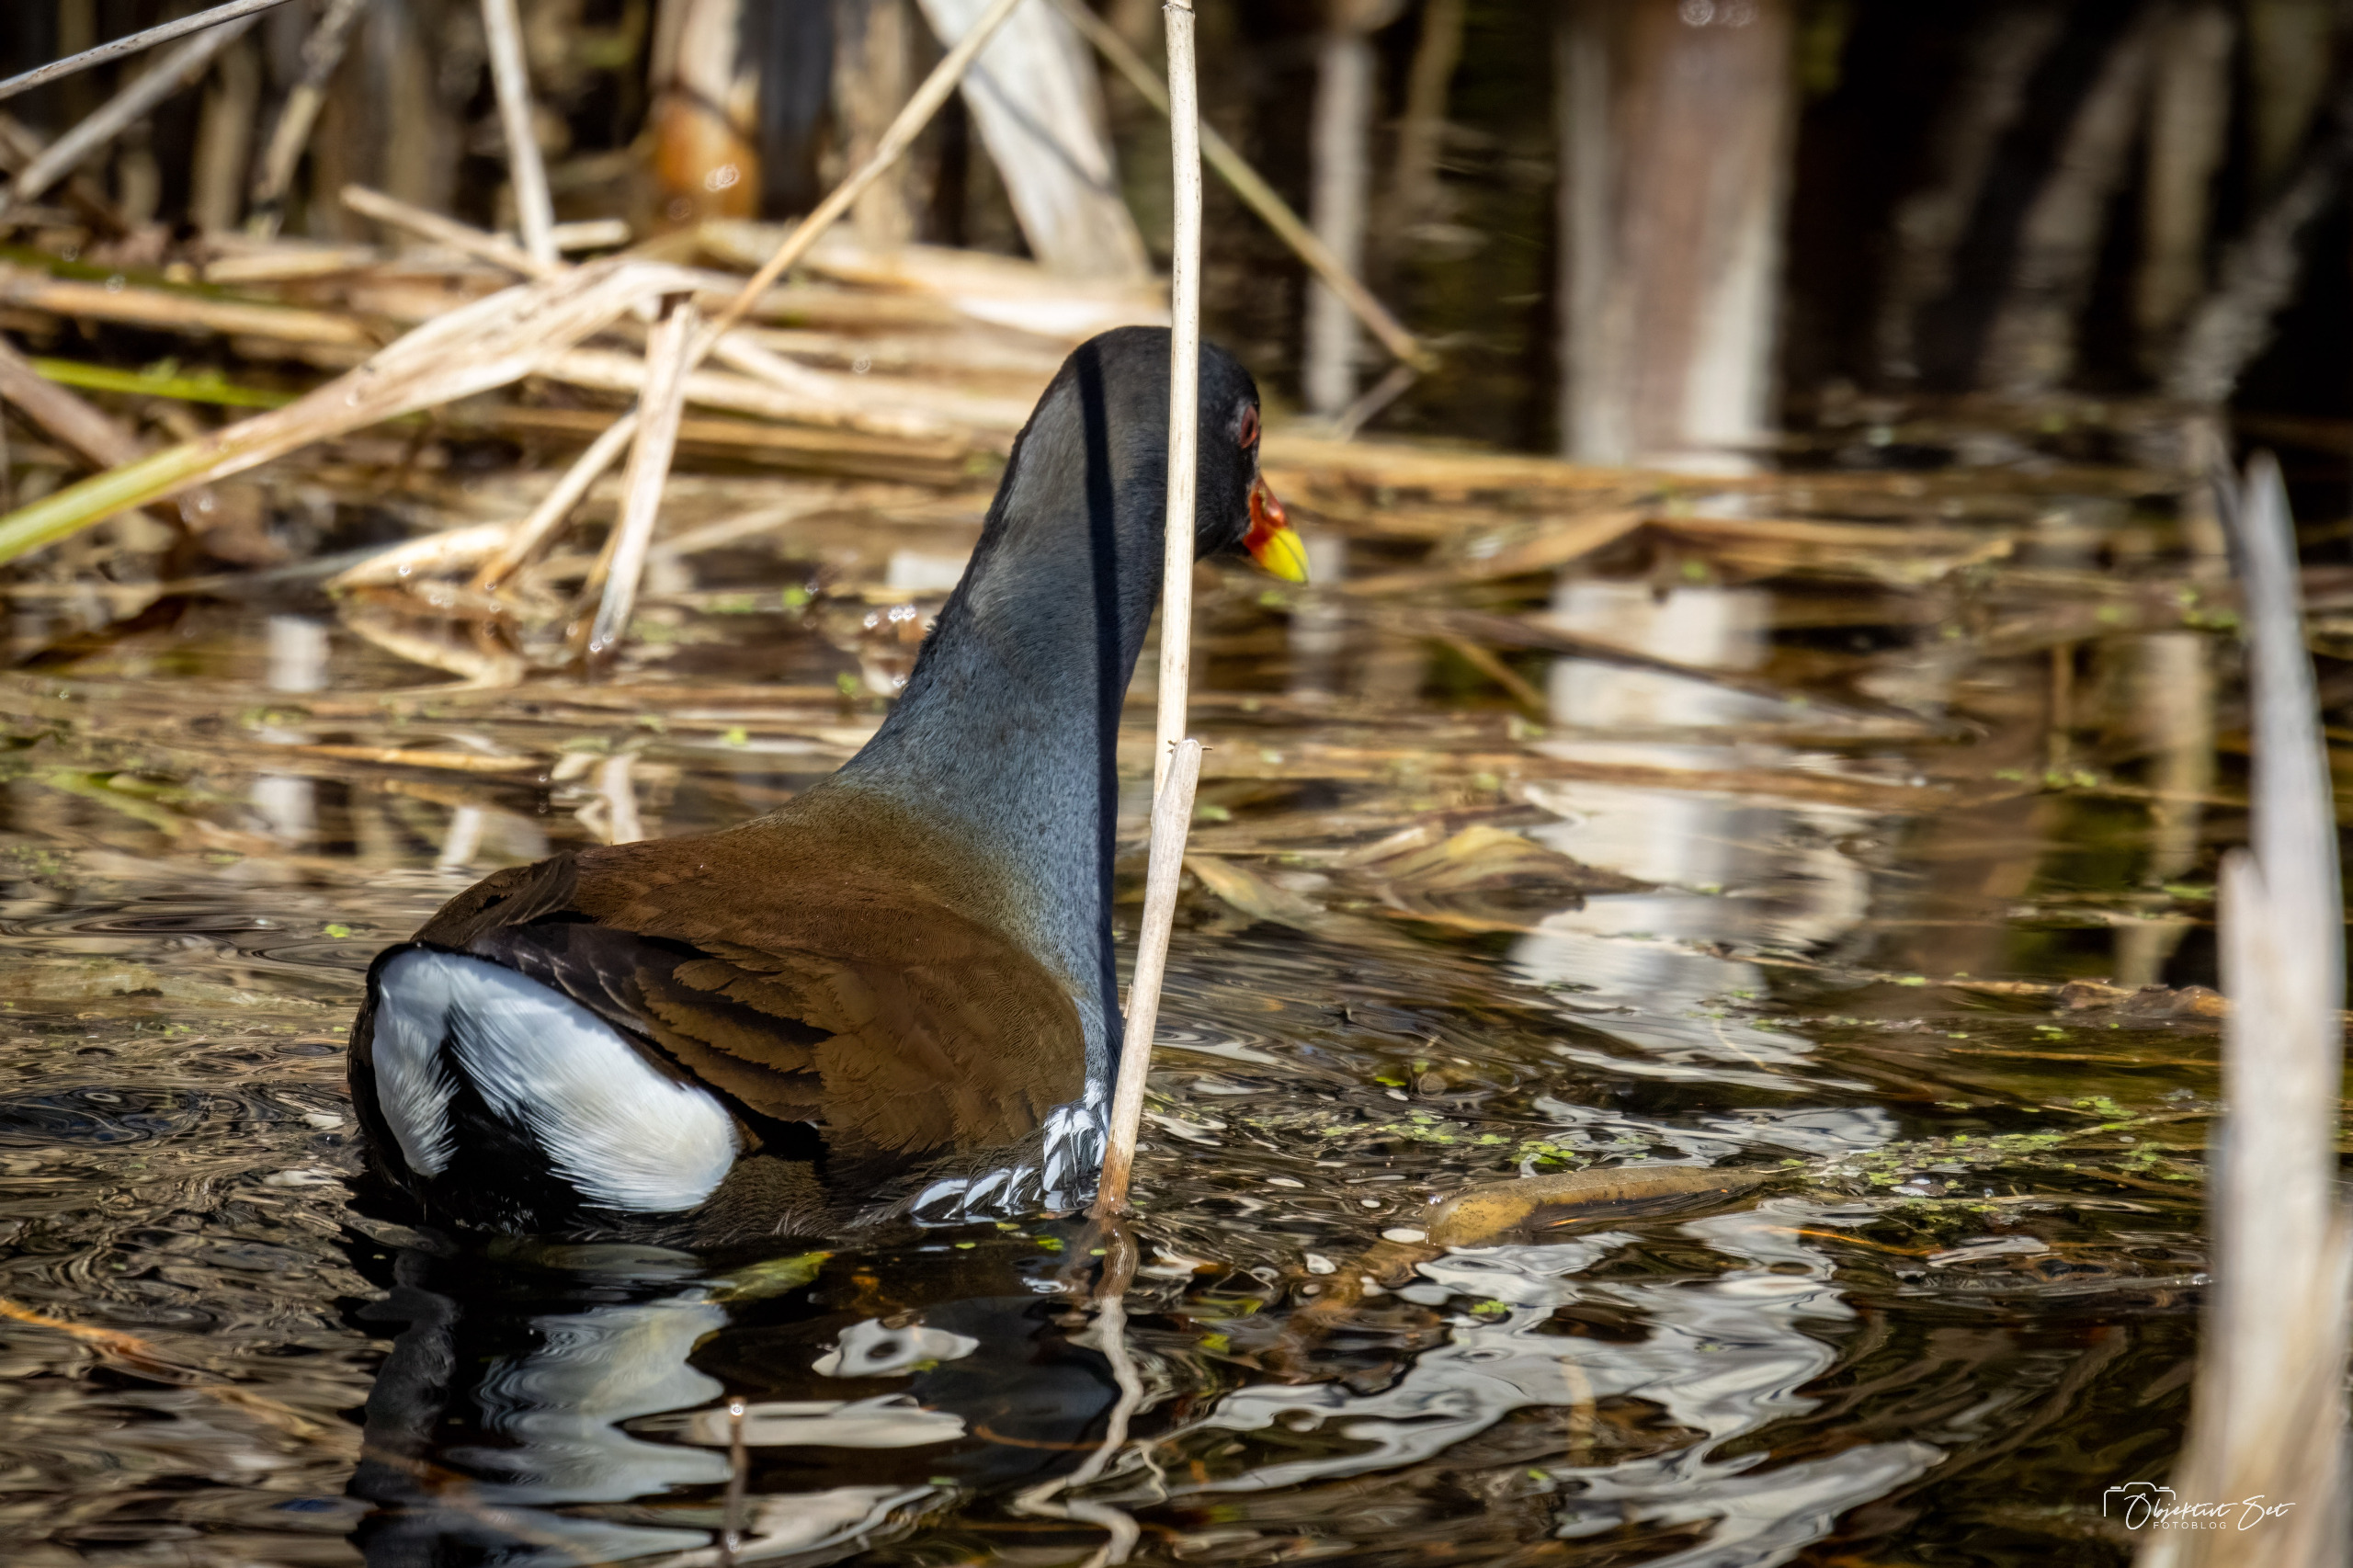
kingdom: Animalia
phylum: Chordata
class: Aves
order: Gruiformes
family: Rallidae
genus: Gallinula
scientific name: Gallinula chloropus
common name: Grønbenet rørhøne
